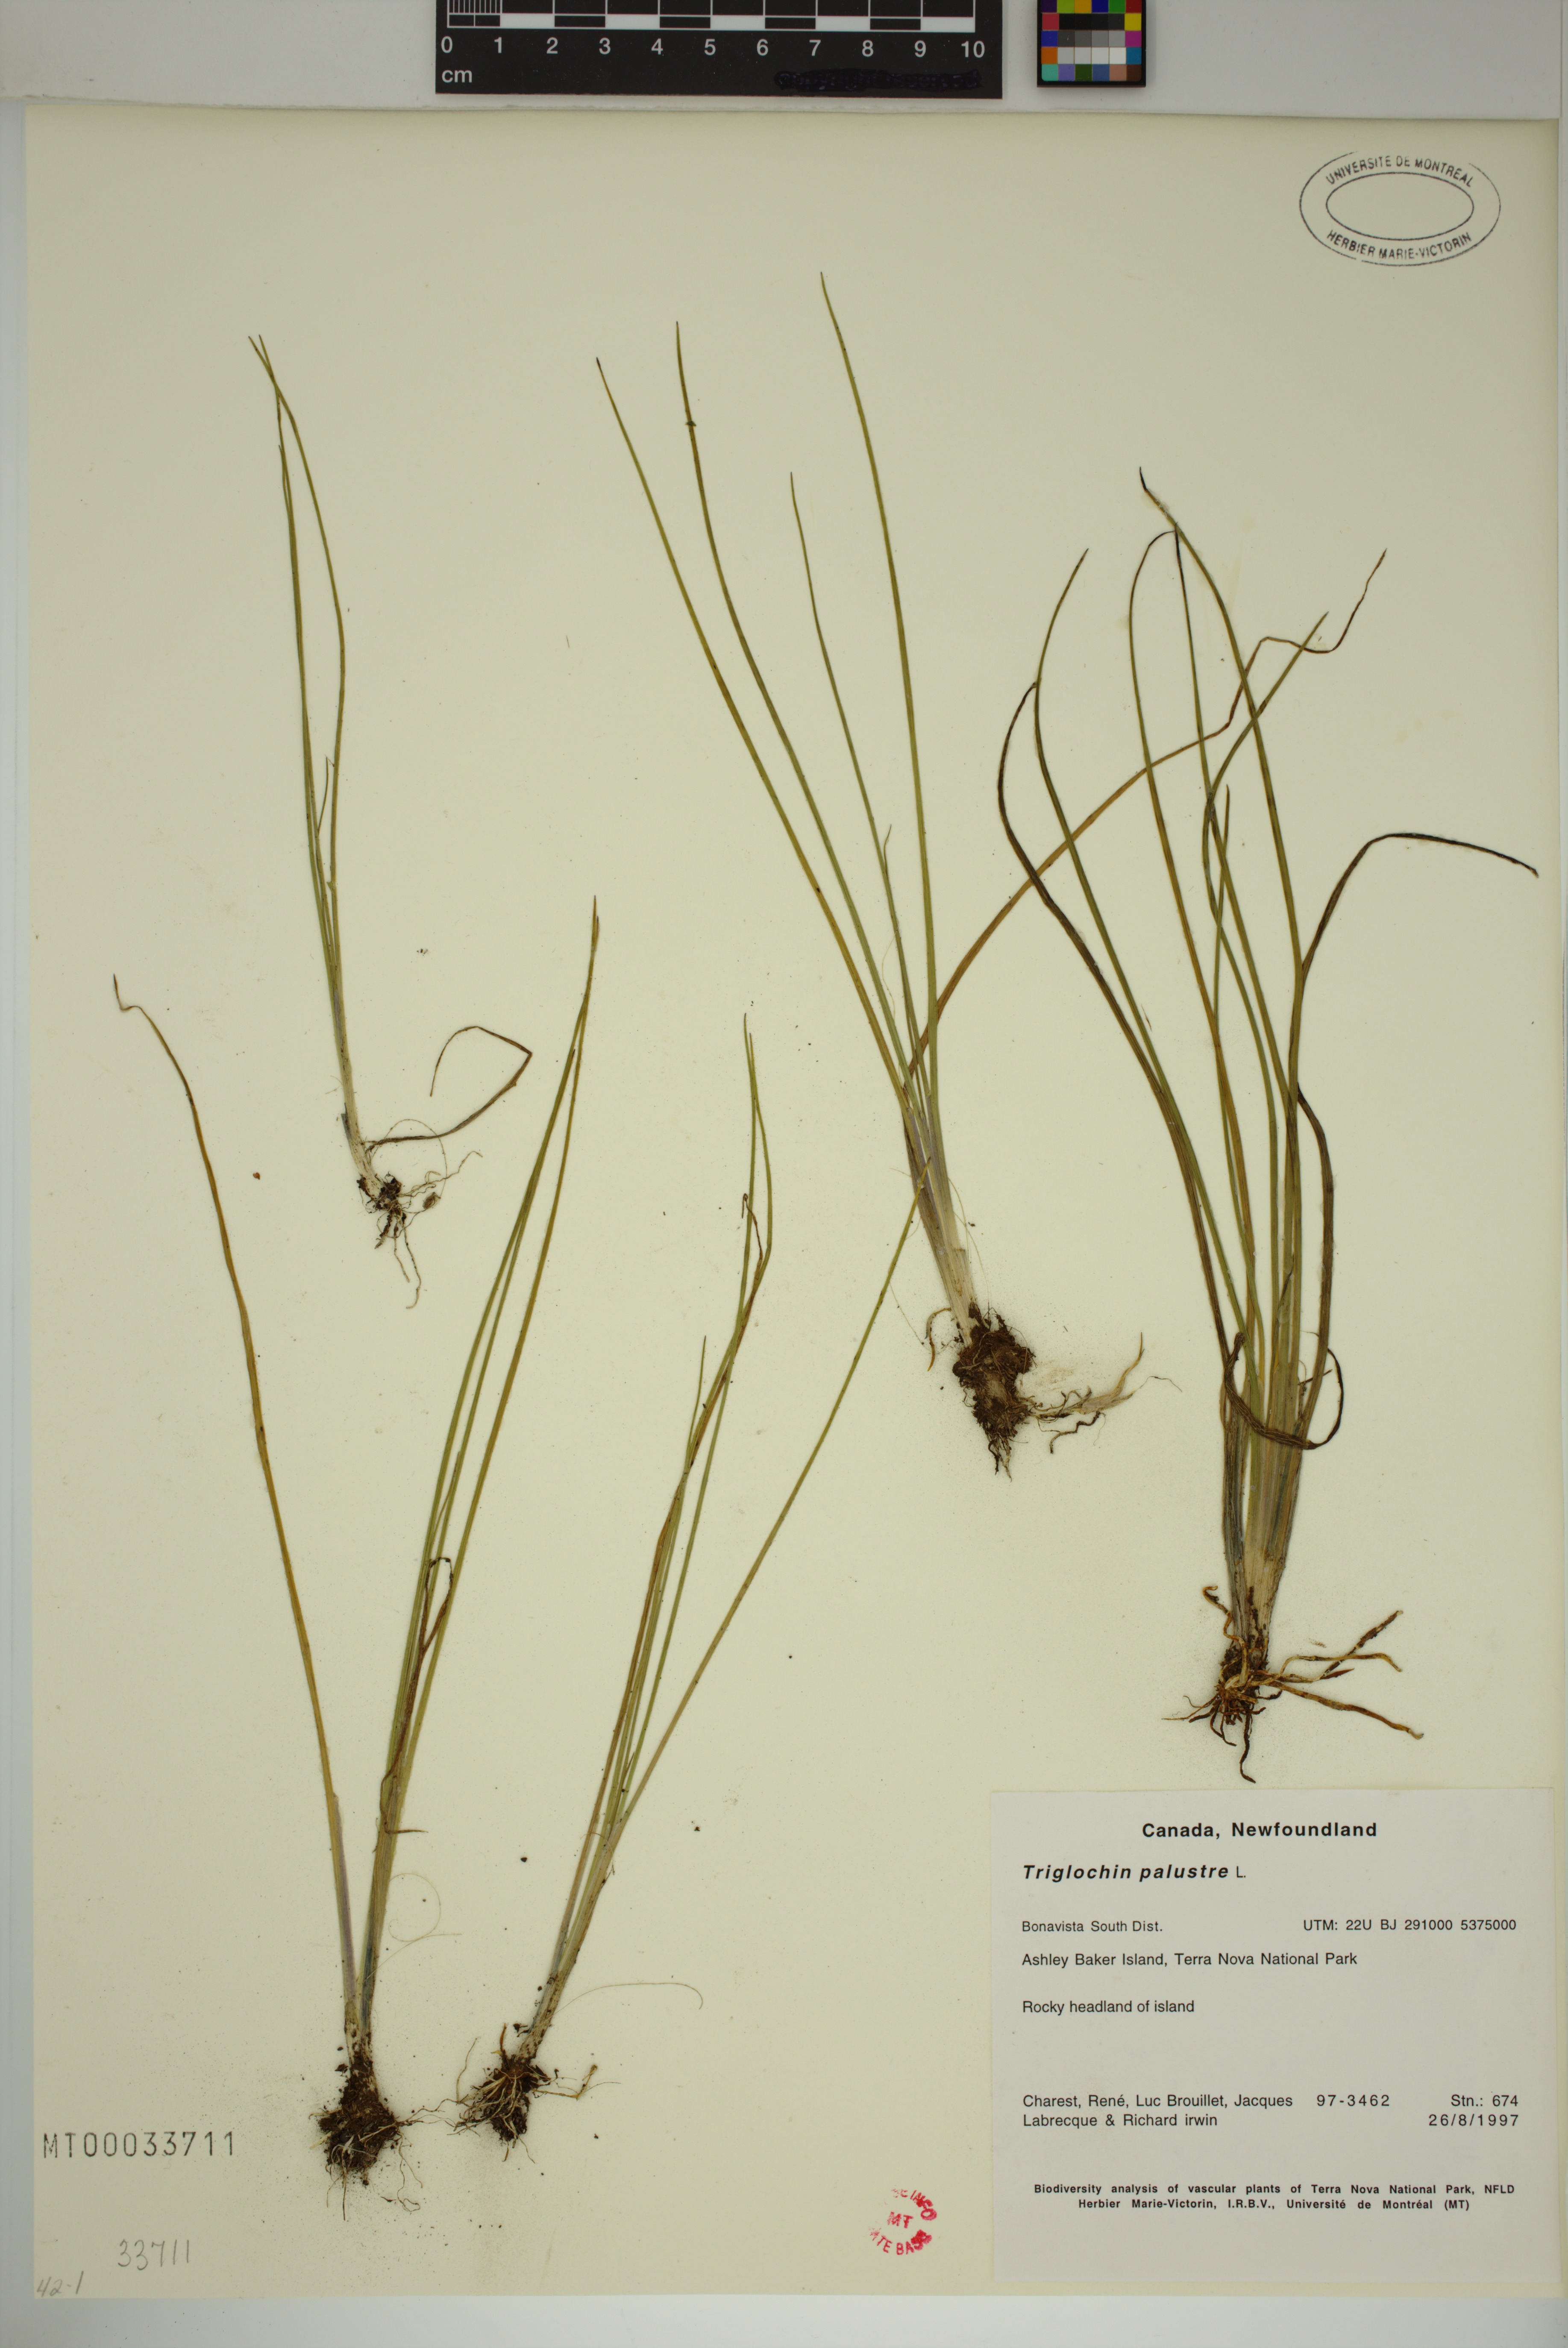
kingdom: Plantae
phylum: Tracheophyta
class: Liliopsida
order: Alismatales
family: Juncaginaceae
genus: Triglochin
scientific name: Triglochin palustris
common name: Marsh arrowgrass
